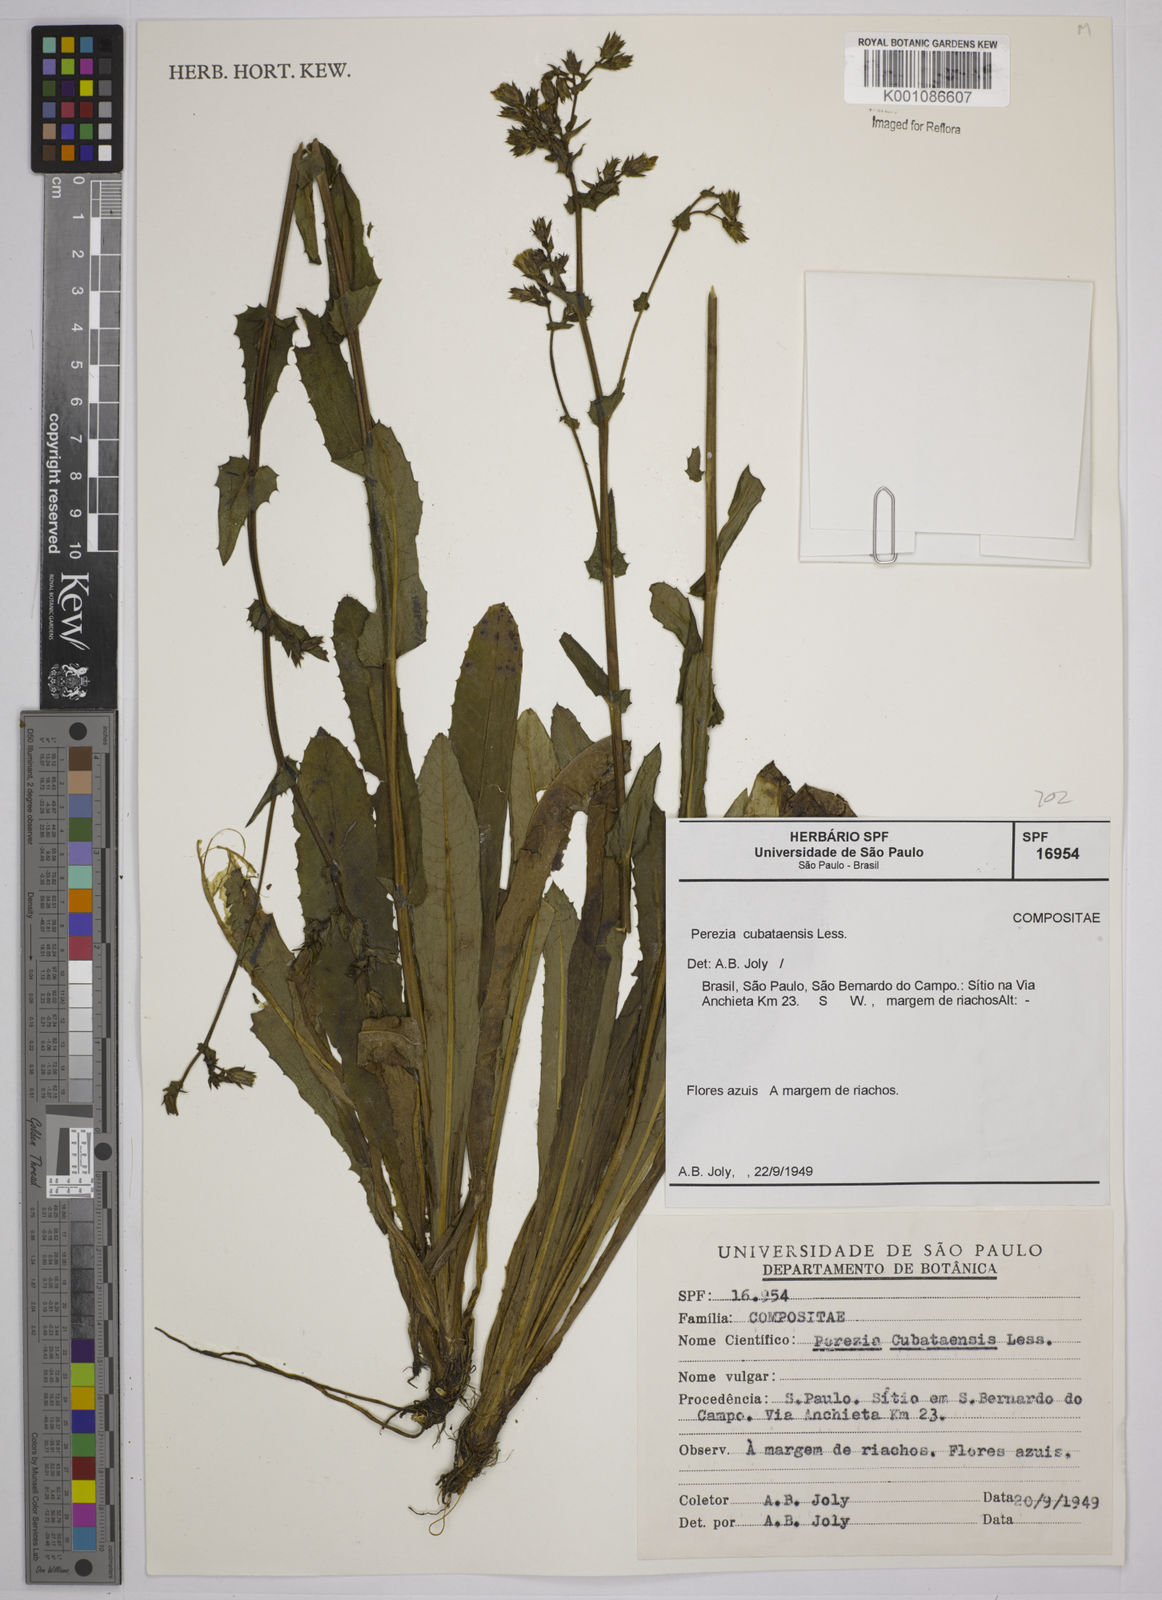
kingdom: Plantae
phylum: Tracheophyta
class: Magnoliopsida
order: Asterales
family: Asteraceae
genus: Perezia
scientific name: Perezia squarrosa
